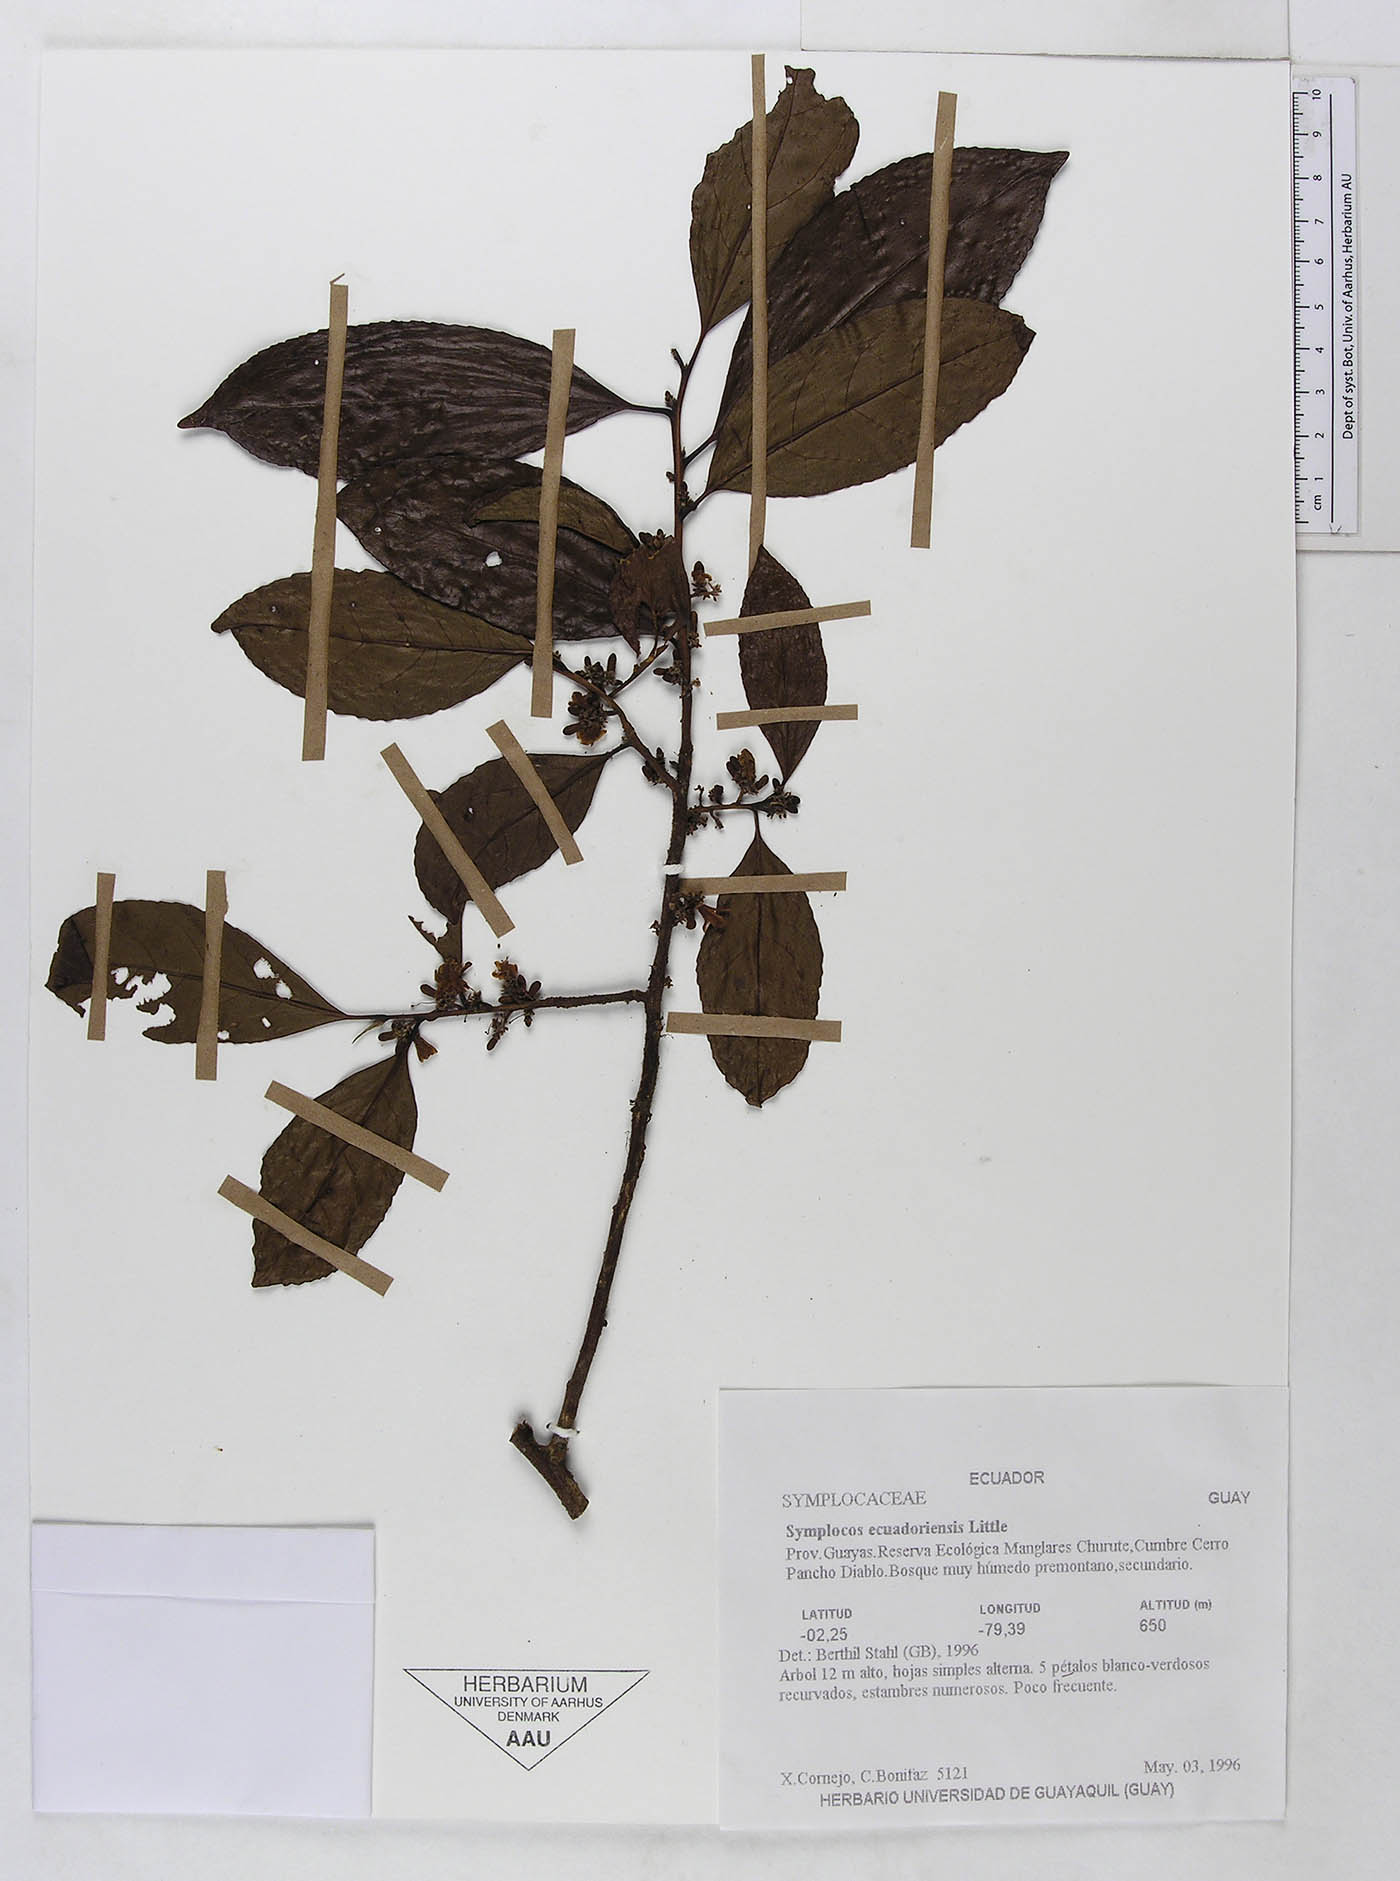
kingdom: Plantae
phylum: Tracheophyta
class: Magnoliopsida
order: Ericales
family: Symplocaceae
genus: Symplocos
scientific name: Symplocos ecuadorensis
